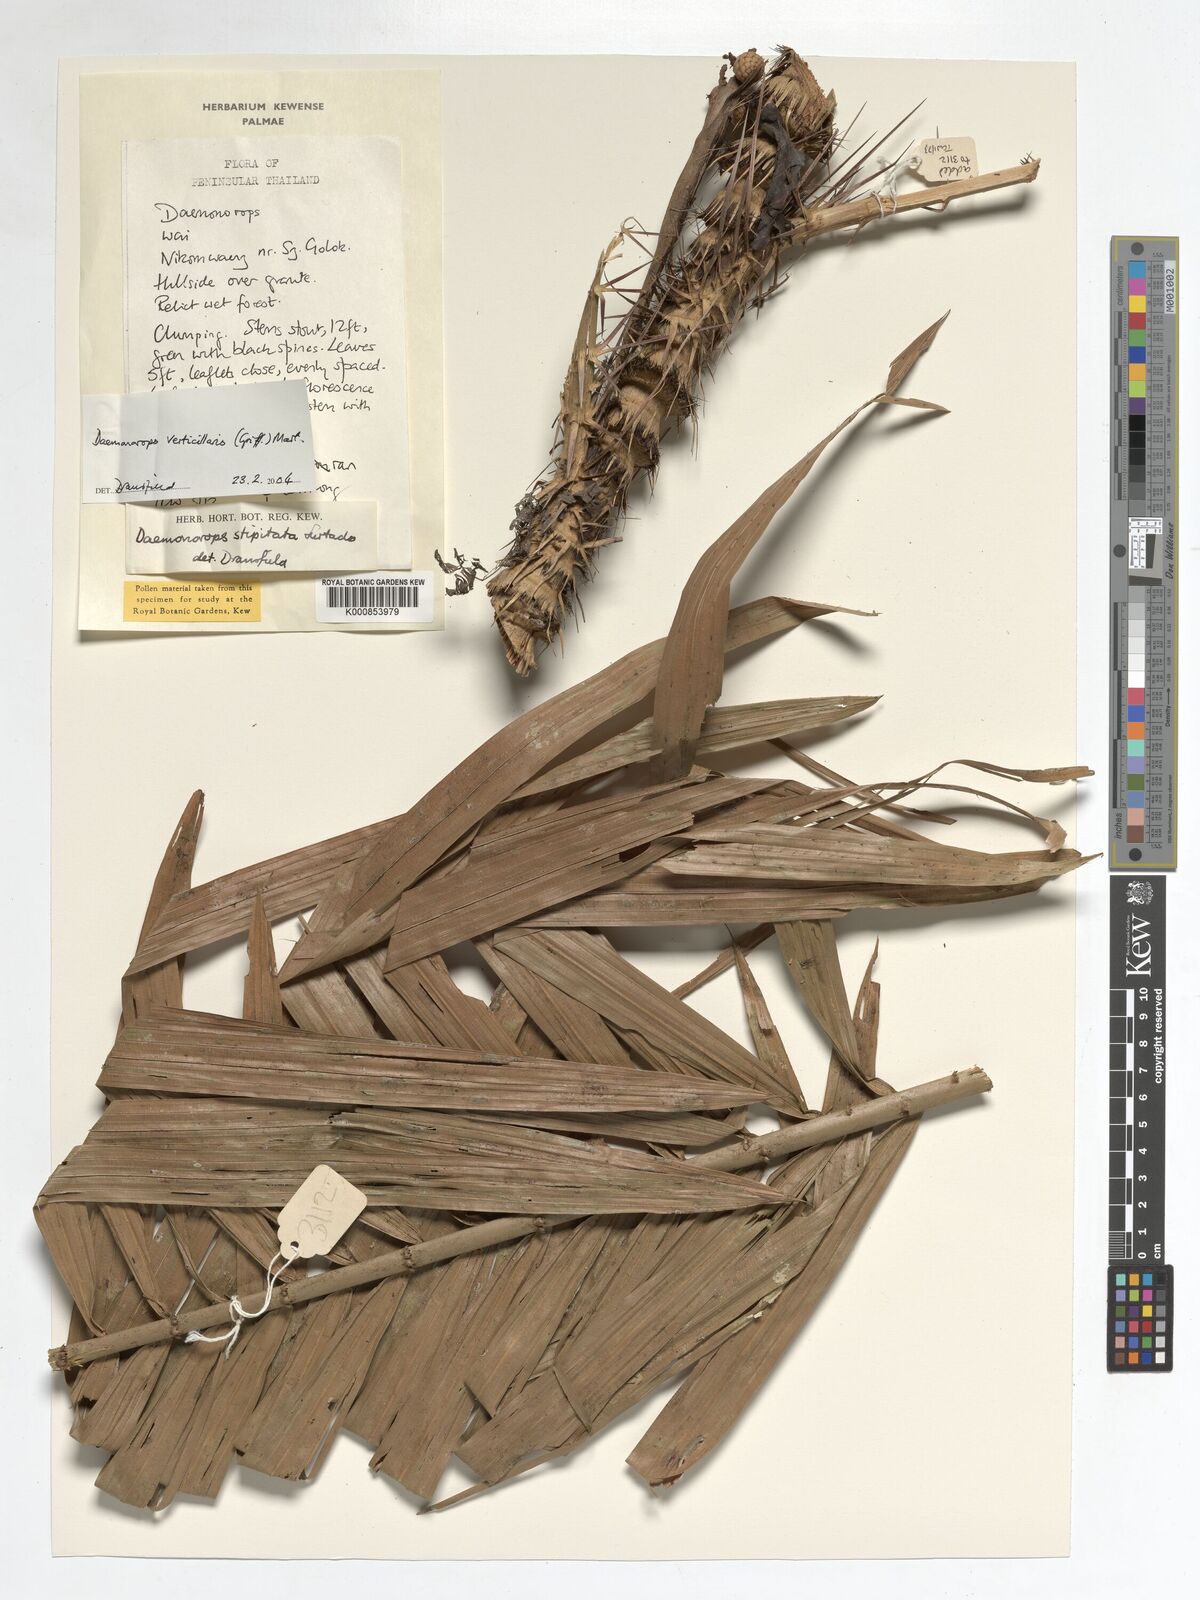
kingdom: Plantae
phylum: Tracheophyta
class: Liliopsida
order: Arecales
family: Arecaceae
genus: Calamus
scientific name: Calamus verticillaris
